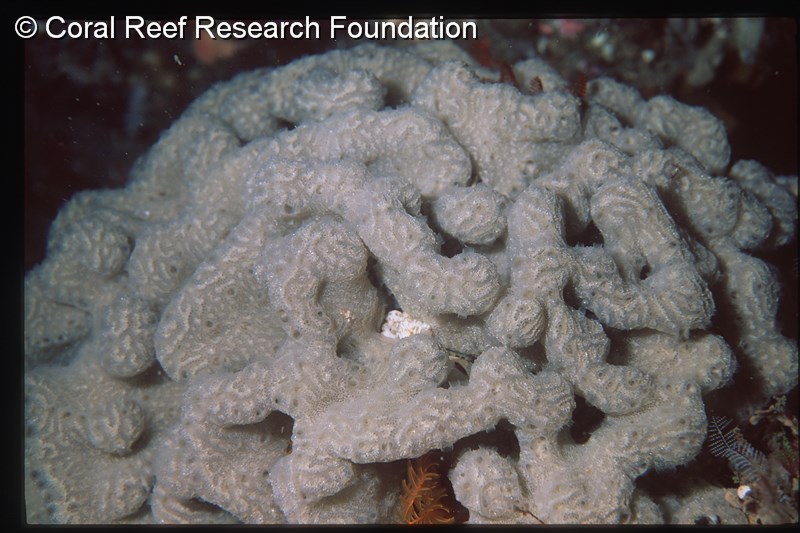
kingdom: Animalia
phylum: Chordata
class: Ascidiacea
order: Aplousobranchia
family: Polyclinidae
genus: Aplidium
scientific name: Aplidium pantherinum
